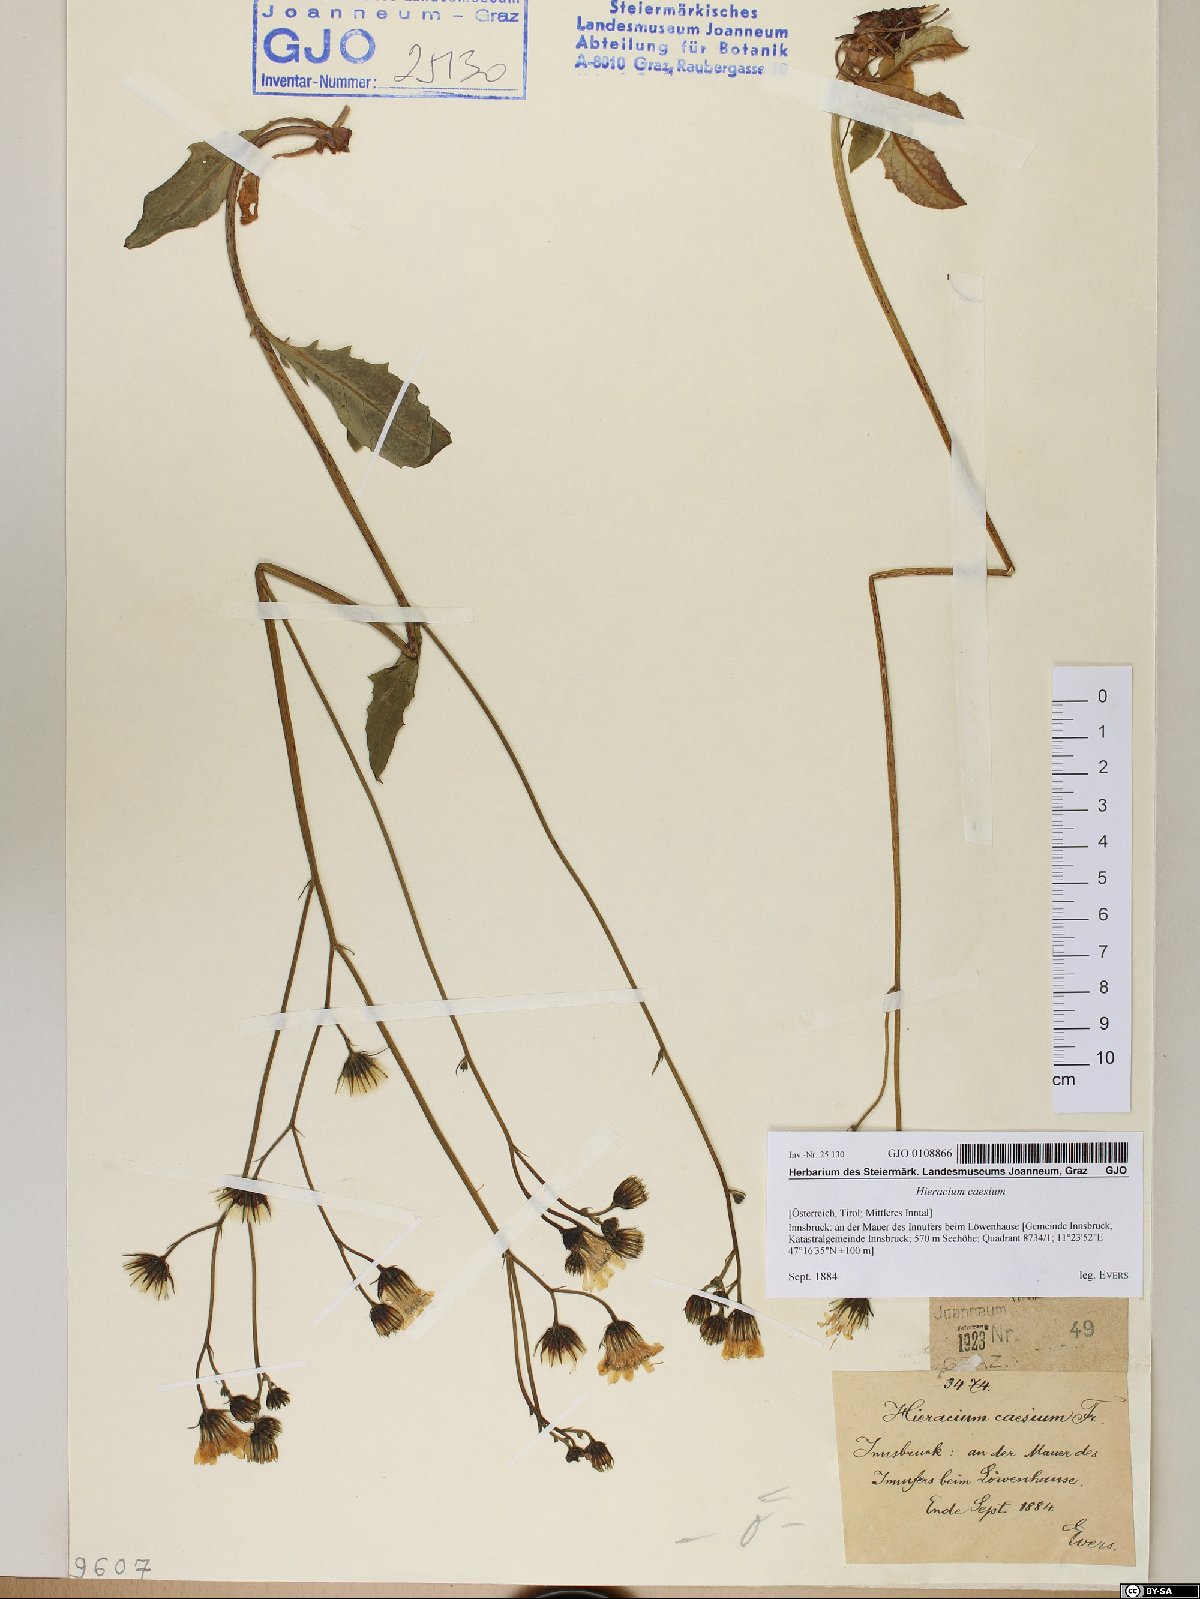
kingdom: Plantae
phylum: Tracheophyta
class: Magnoliopsida
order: Asterales
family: Asteraceae
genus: Hieracium
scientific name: Hieracium caesium
